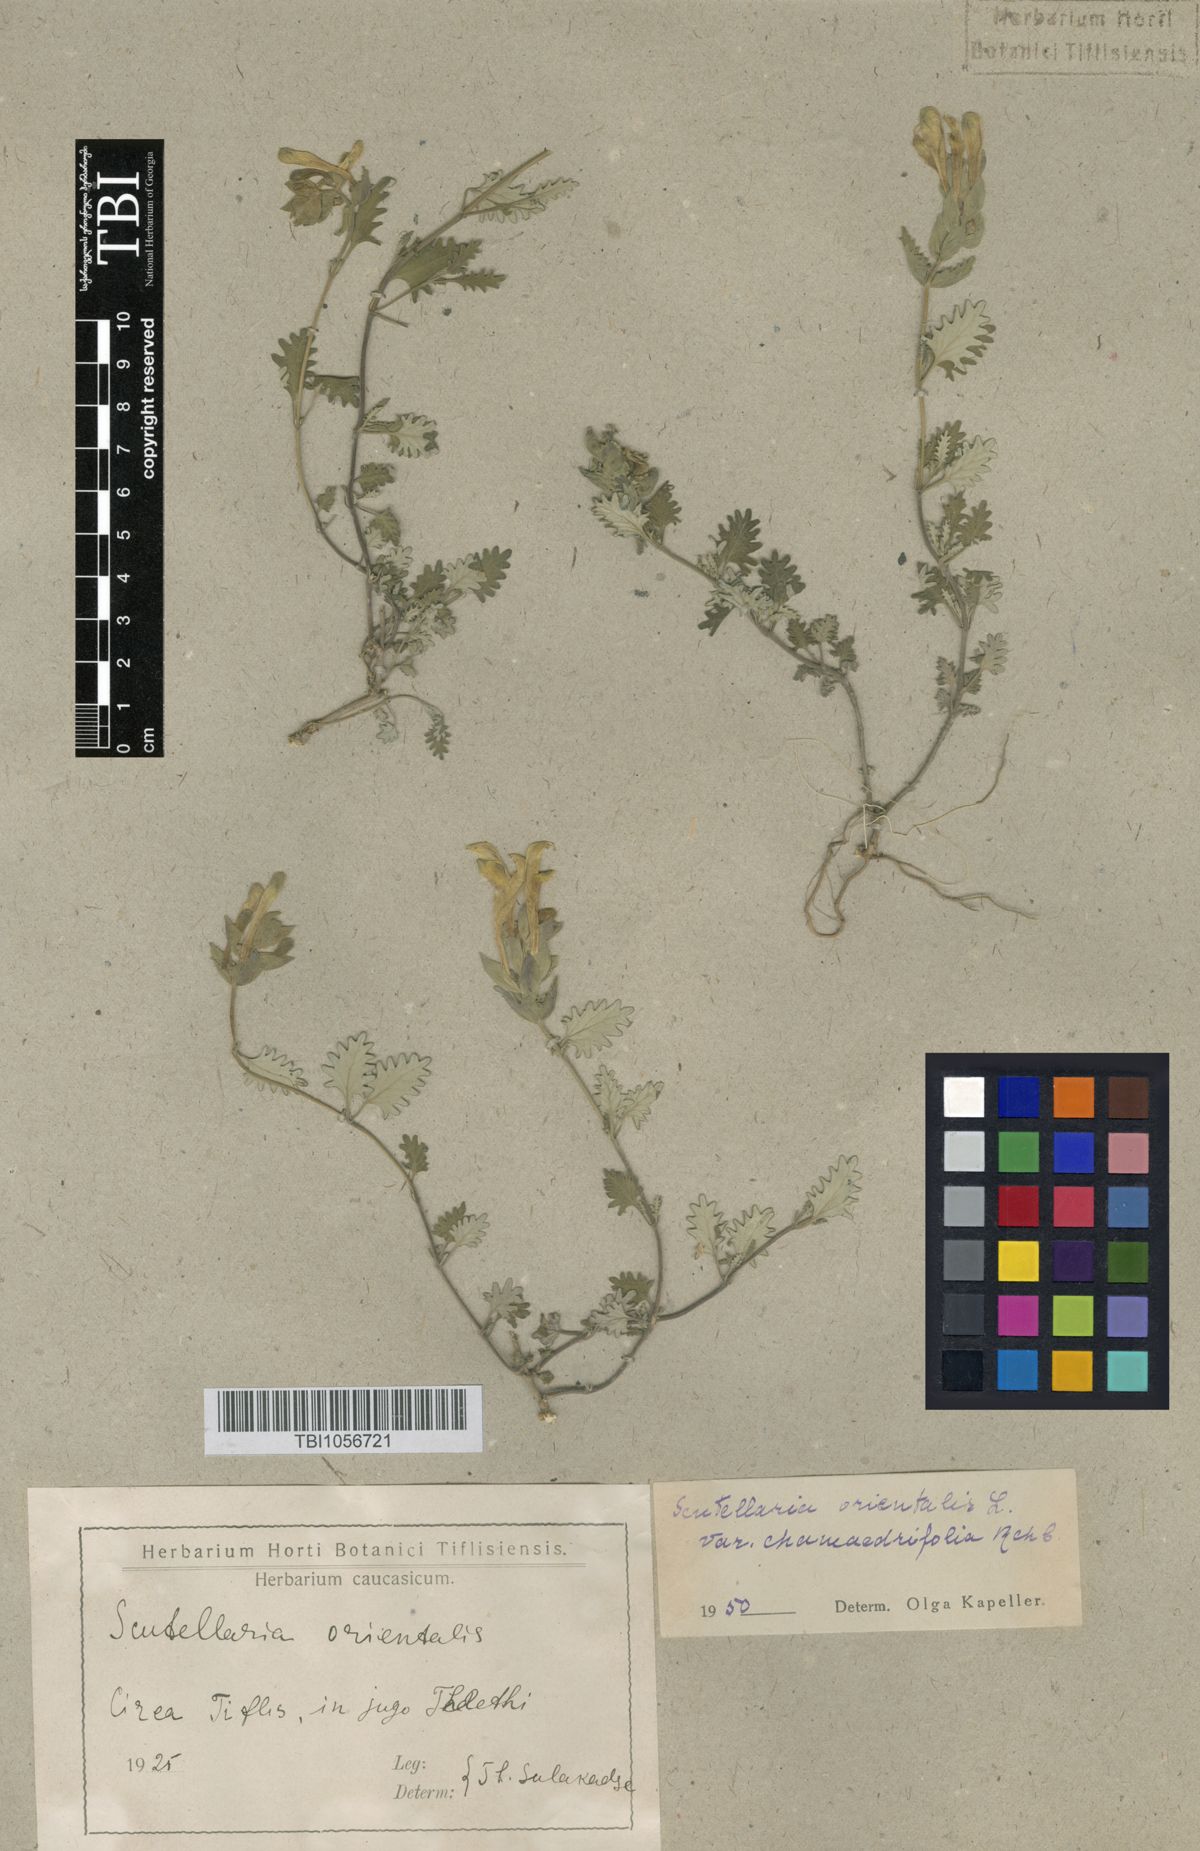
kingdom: Plantae
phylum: Tracheophyta
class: Magnoliopsida
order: Lamiales
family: Lamiaceae
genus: Scutellaria
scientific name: Scutellaria orientalis
